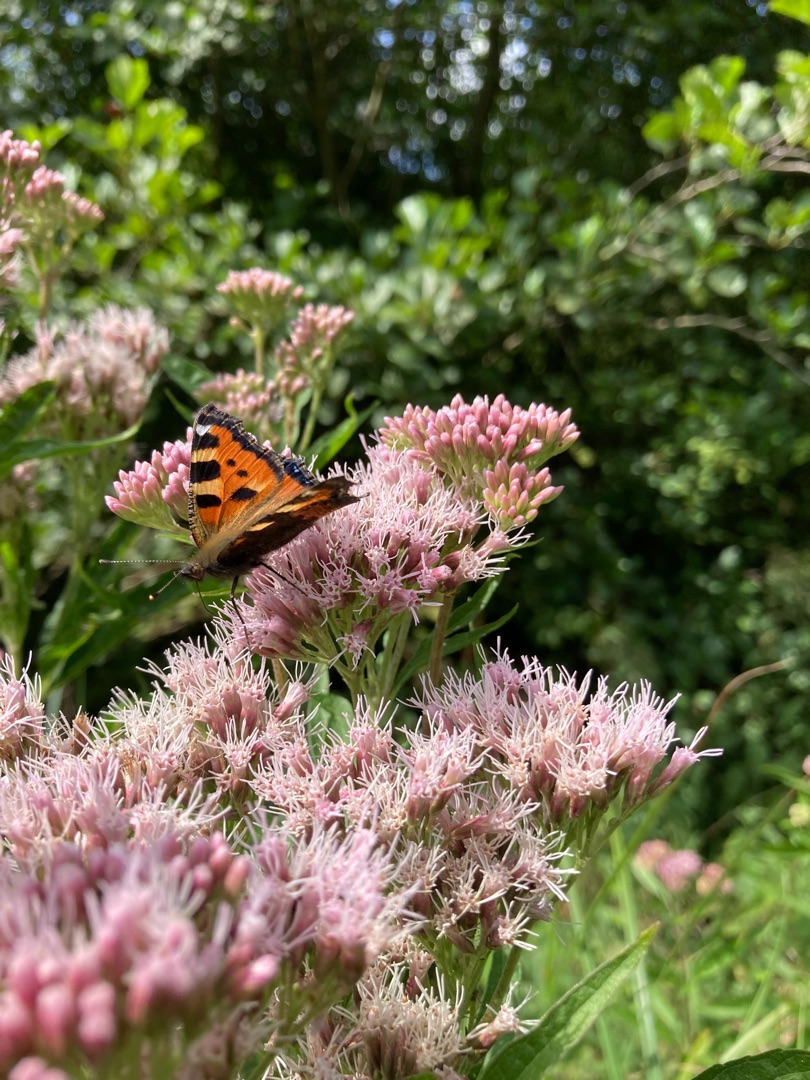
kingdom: Animalia
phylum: Arthropoda
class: Insecta
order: Lepidoptera
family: Nymphalidae
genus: Aglais
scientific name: Aglais urticae
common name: Nældens takvinge
